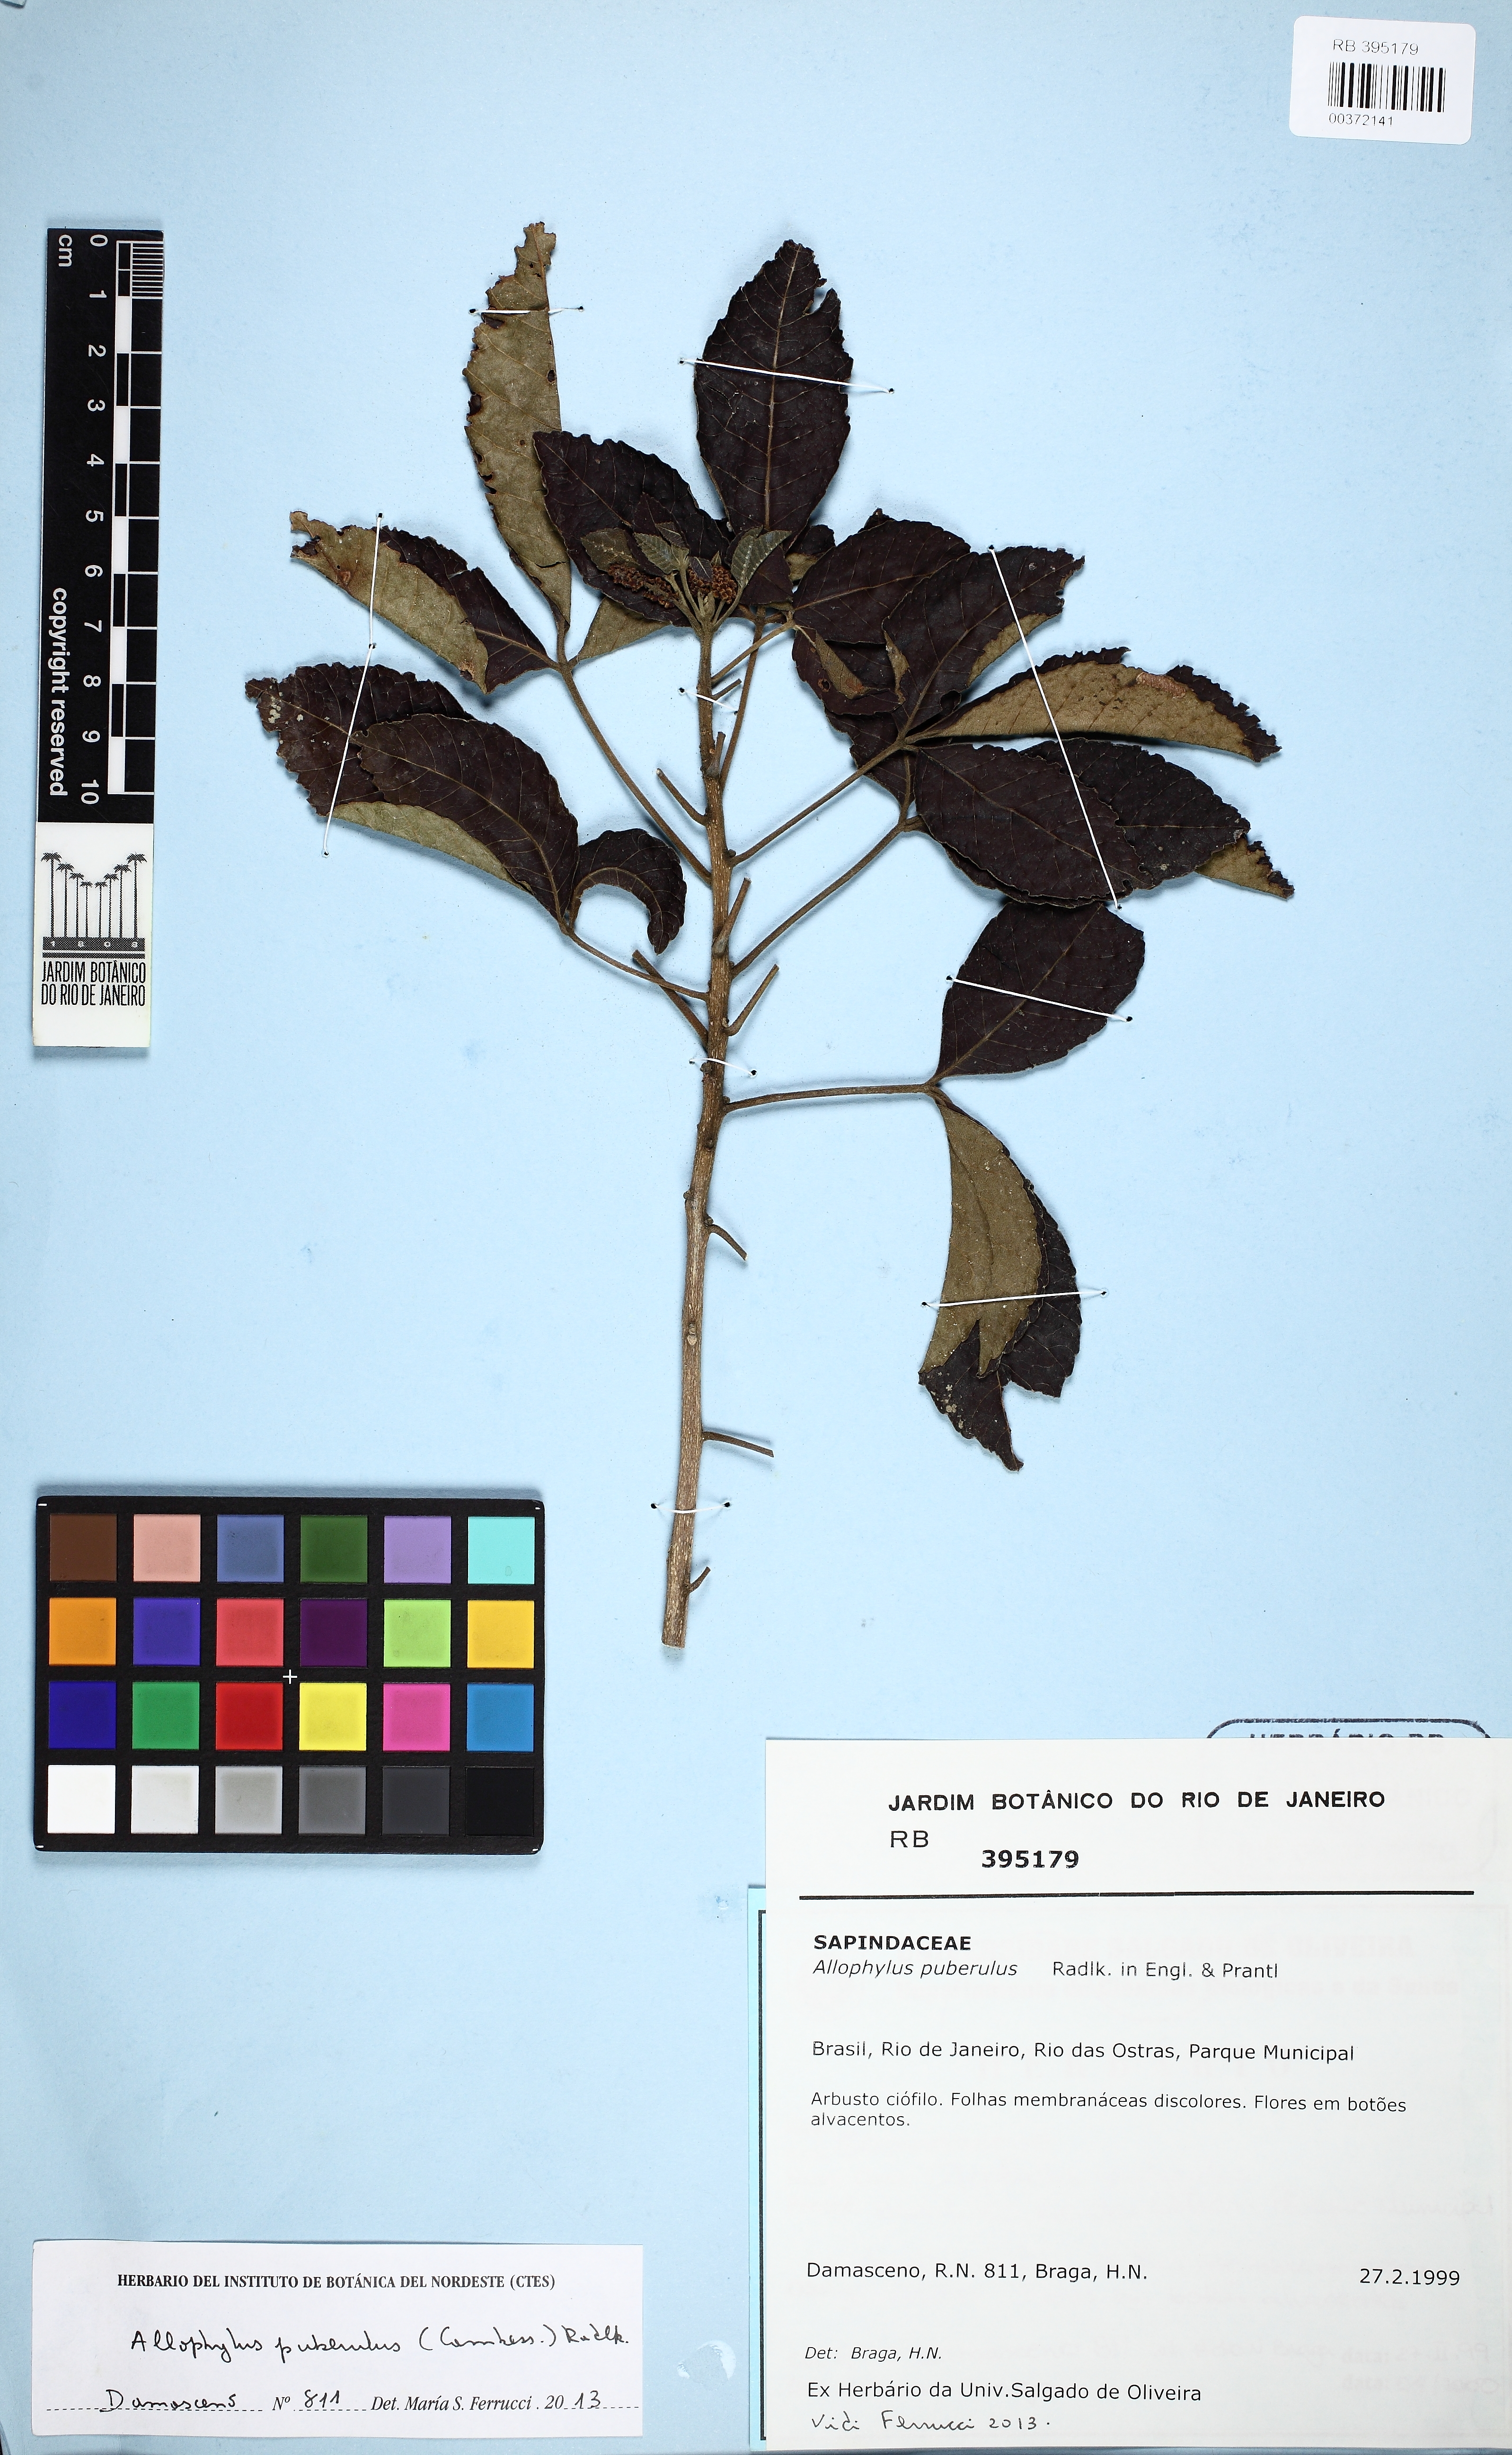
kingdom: Plantae
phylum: Tracheophyta
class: Magnoliopsida
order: Sapindales
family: Sapindaceae
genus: Allophylus
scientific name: Allophylus puberulus
